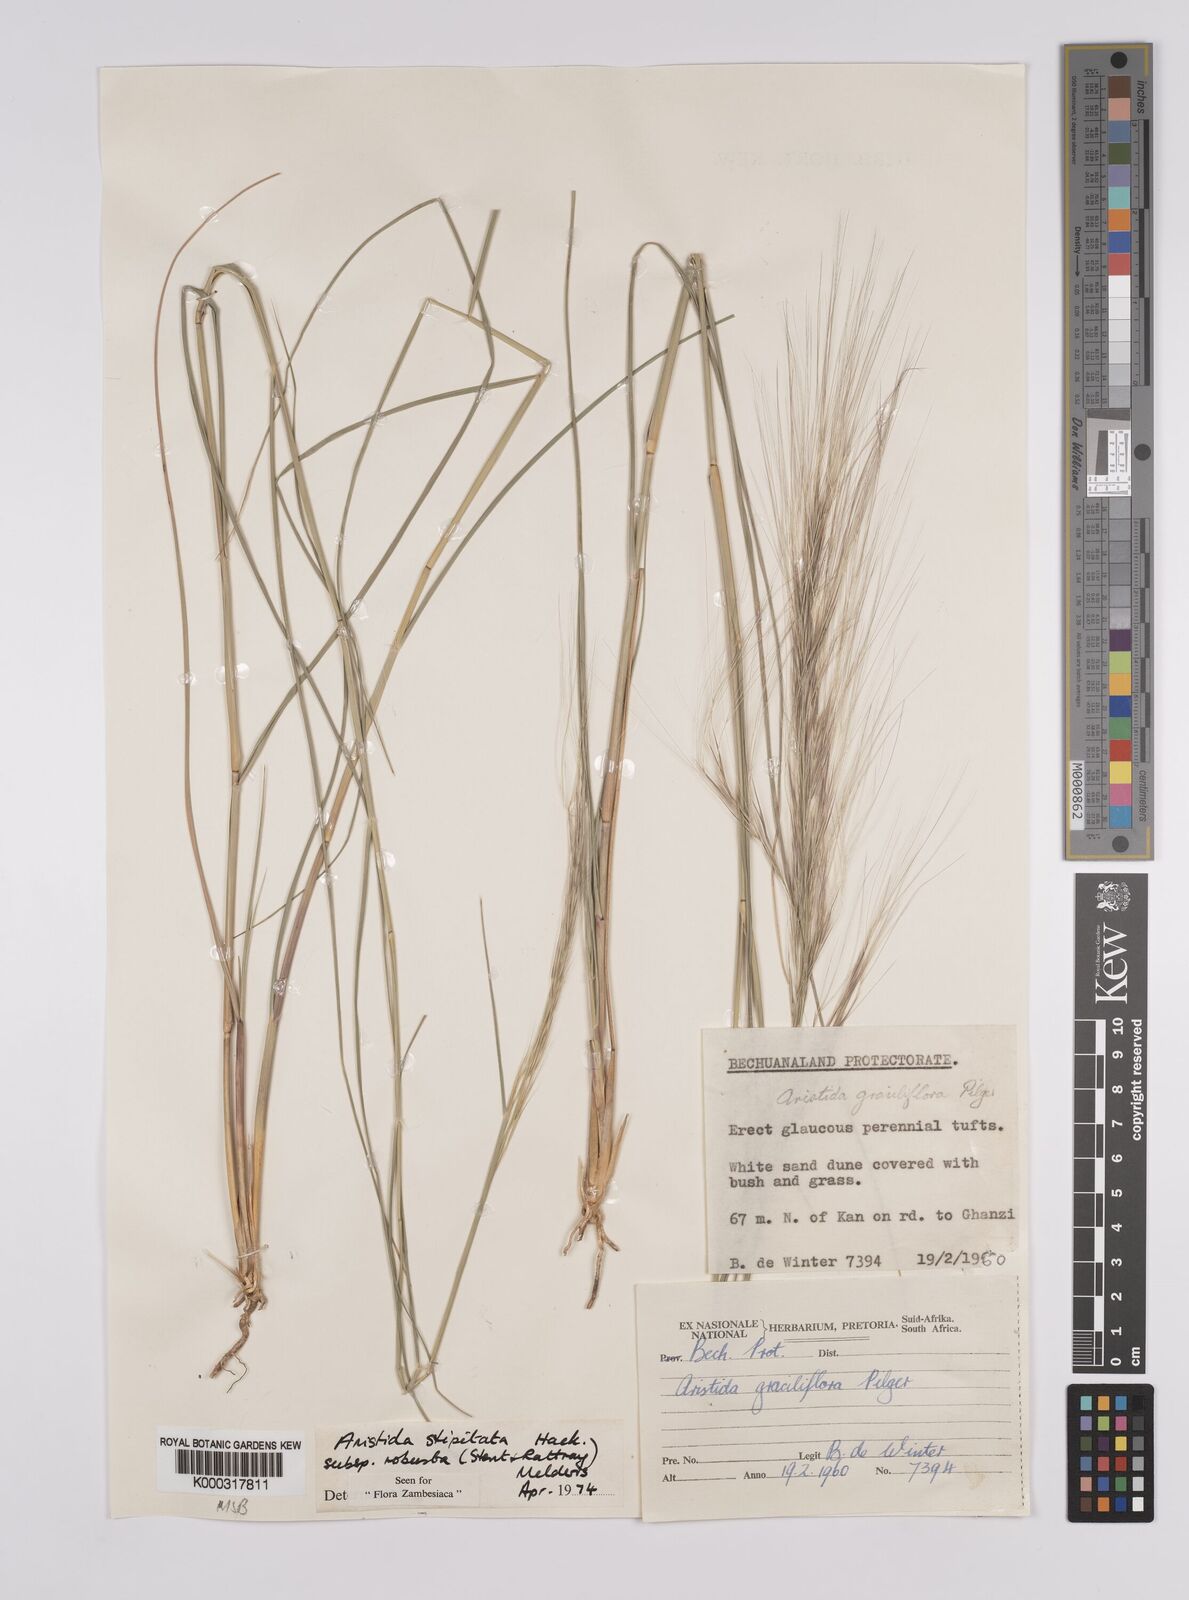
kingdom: Plantae
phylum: Tracheophyta
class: Liliopsida
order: Poales
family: Poaceae
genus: Aristida
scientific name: Aristida stipitata
